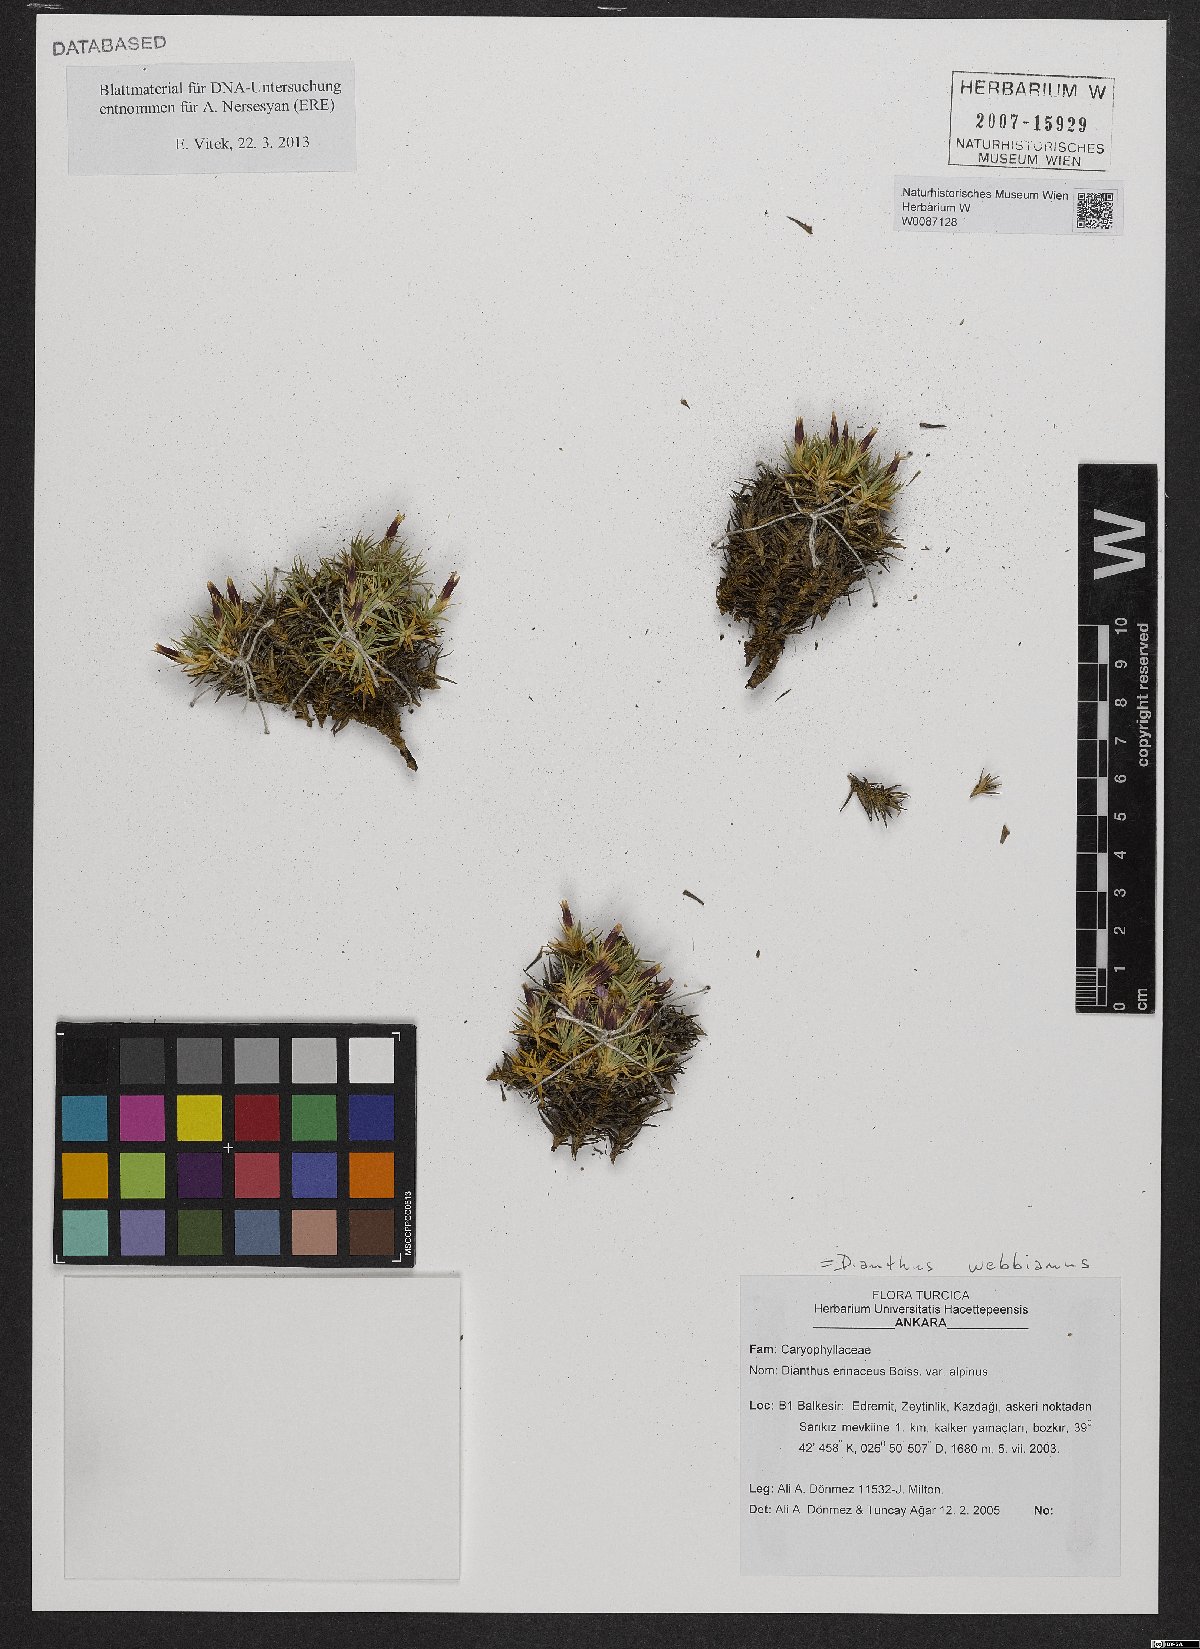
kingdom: Plantae
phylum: Tracheophyta
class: Magnoliopsida
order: Caryophyllales
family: Caryophyllaceae
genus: Dianthus
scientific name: Dianthus webbianus
